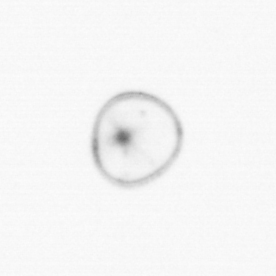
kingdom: Chromista
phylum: Myzozoa
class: Dinophyceae
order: Noctilucales
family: Noctilucaceae
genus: Noctiluca
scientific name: Noctiluca scintillans
